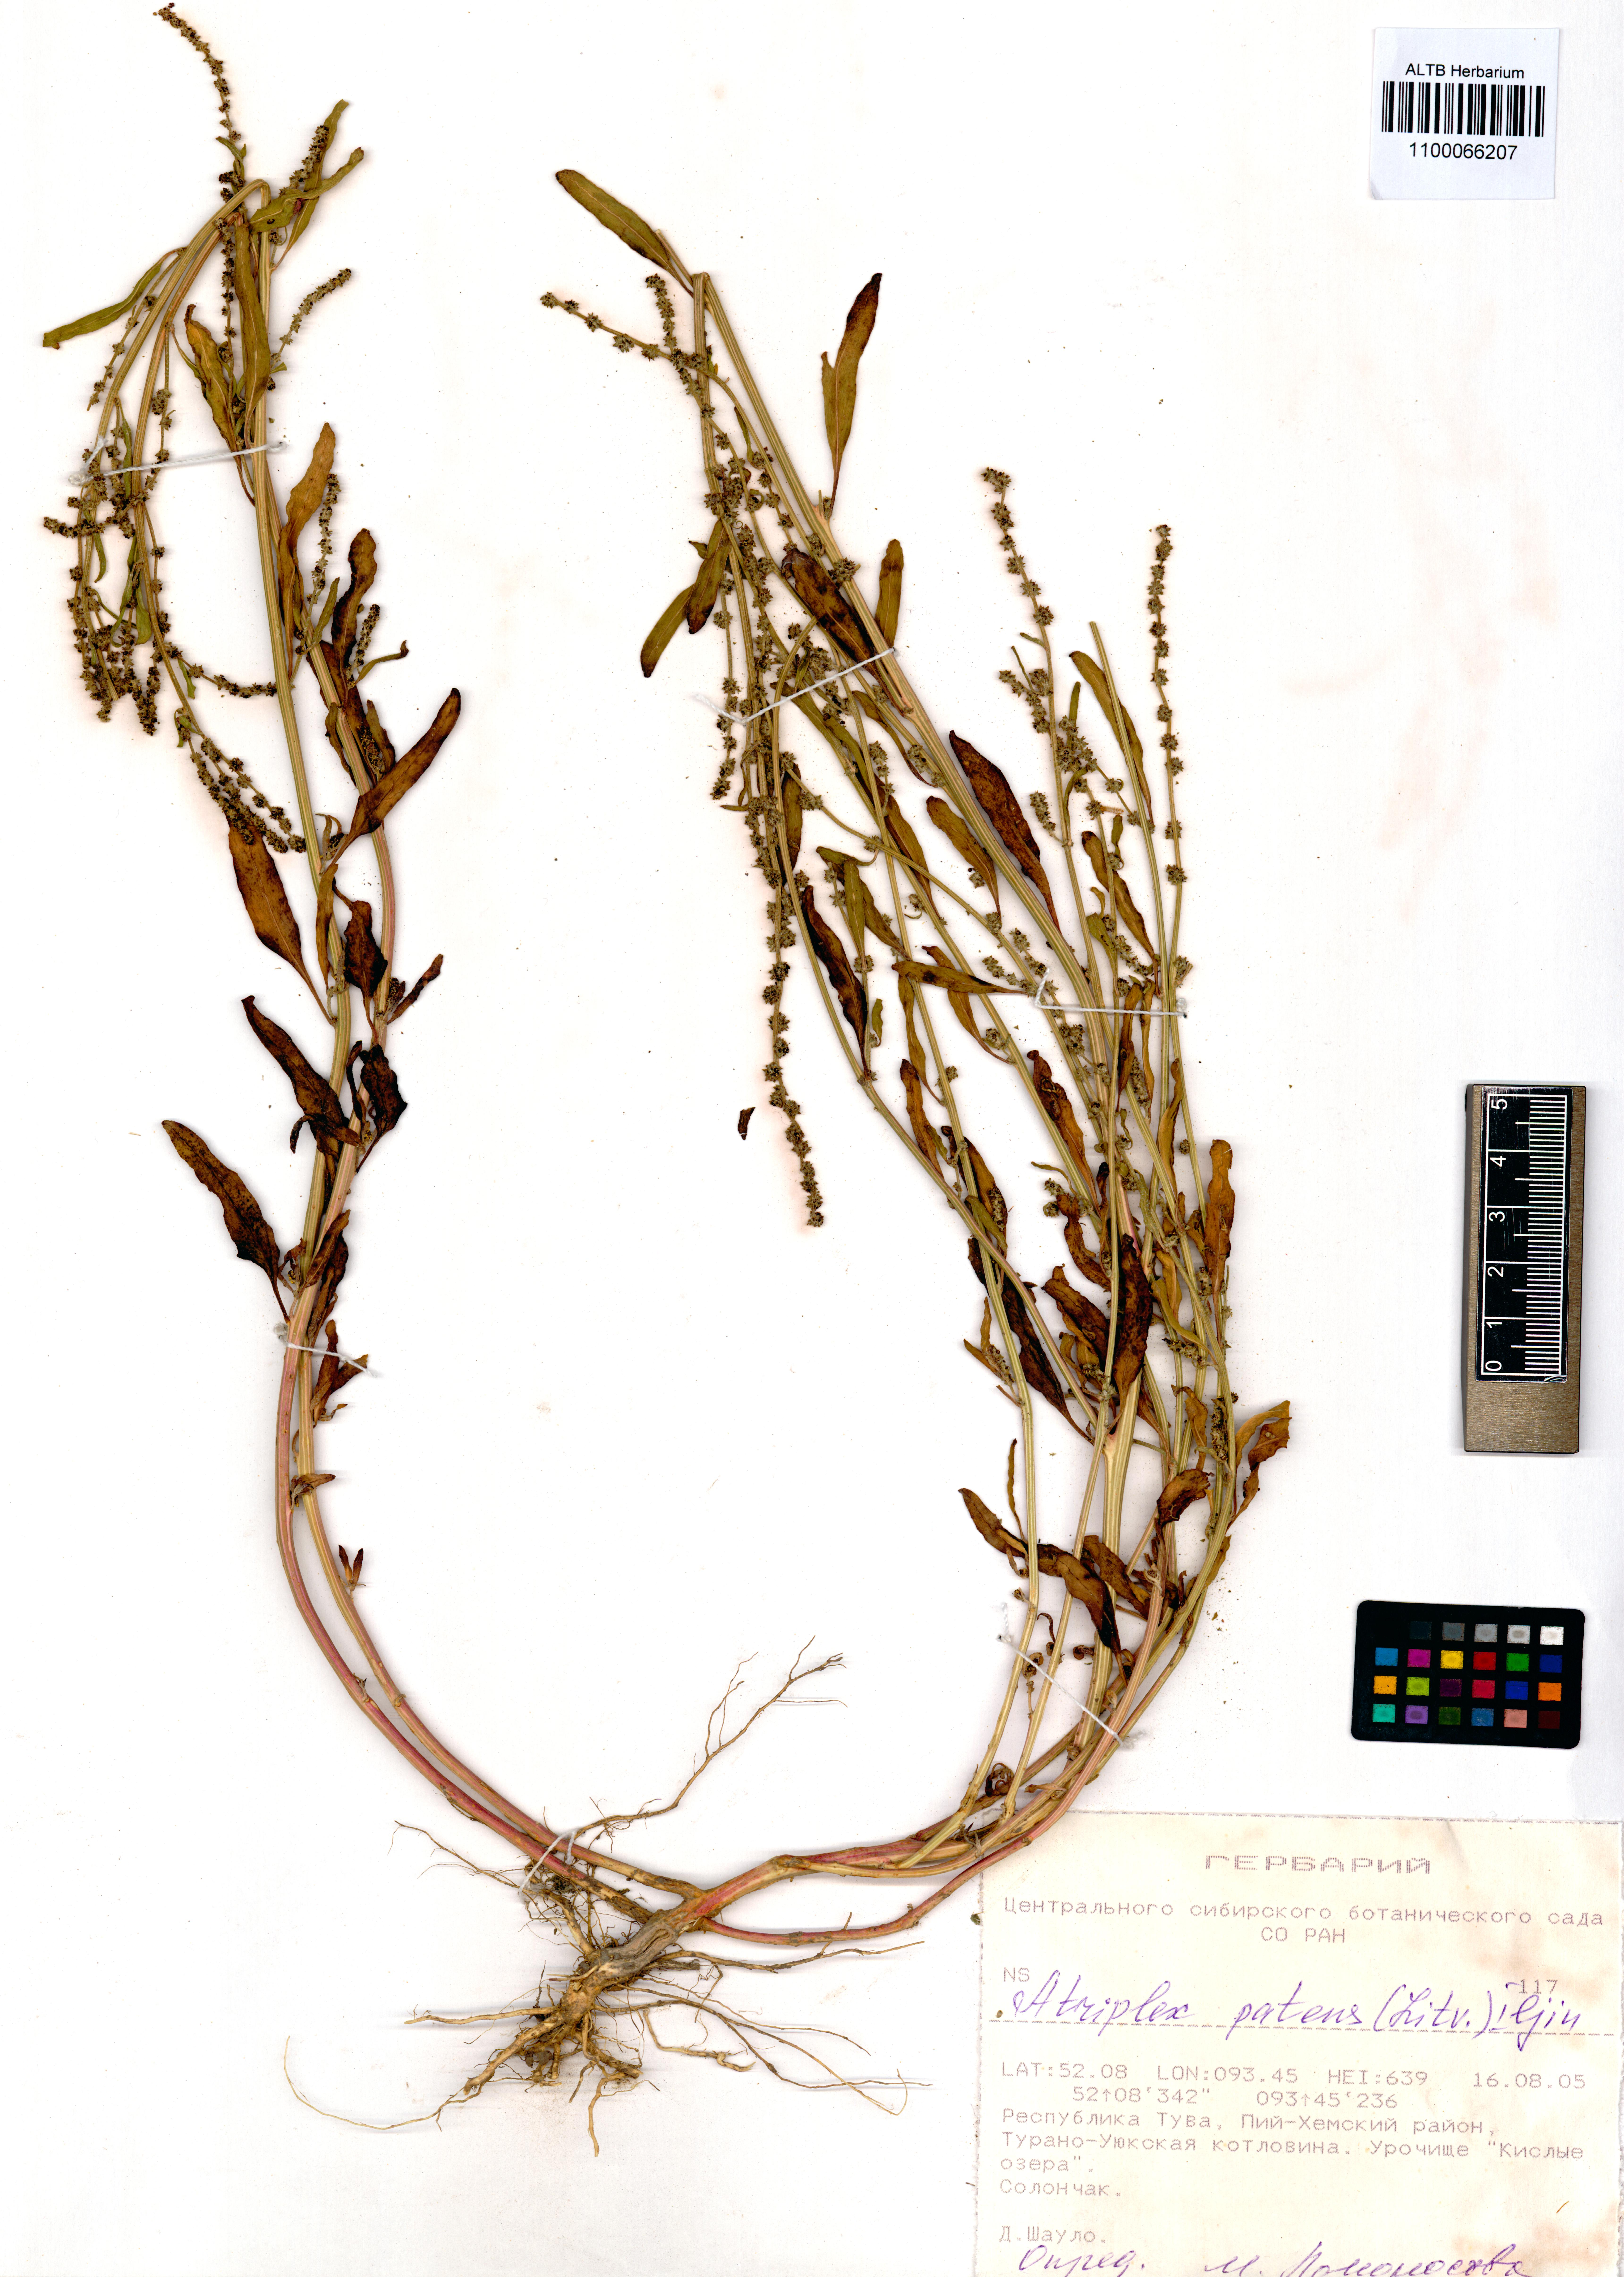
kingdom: Plantae
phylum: Tracheophyta
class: Magnoliopsida
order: Caryophyllales
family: Amaranthaceae
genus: Atriplex
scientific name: Atriplex patens
